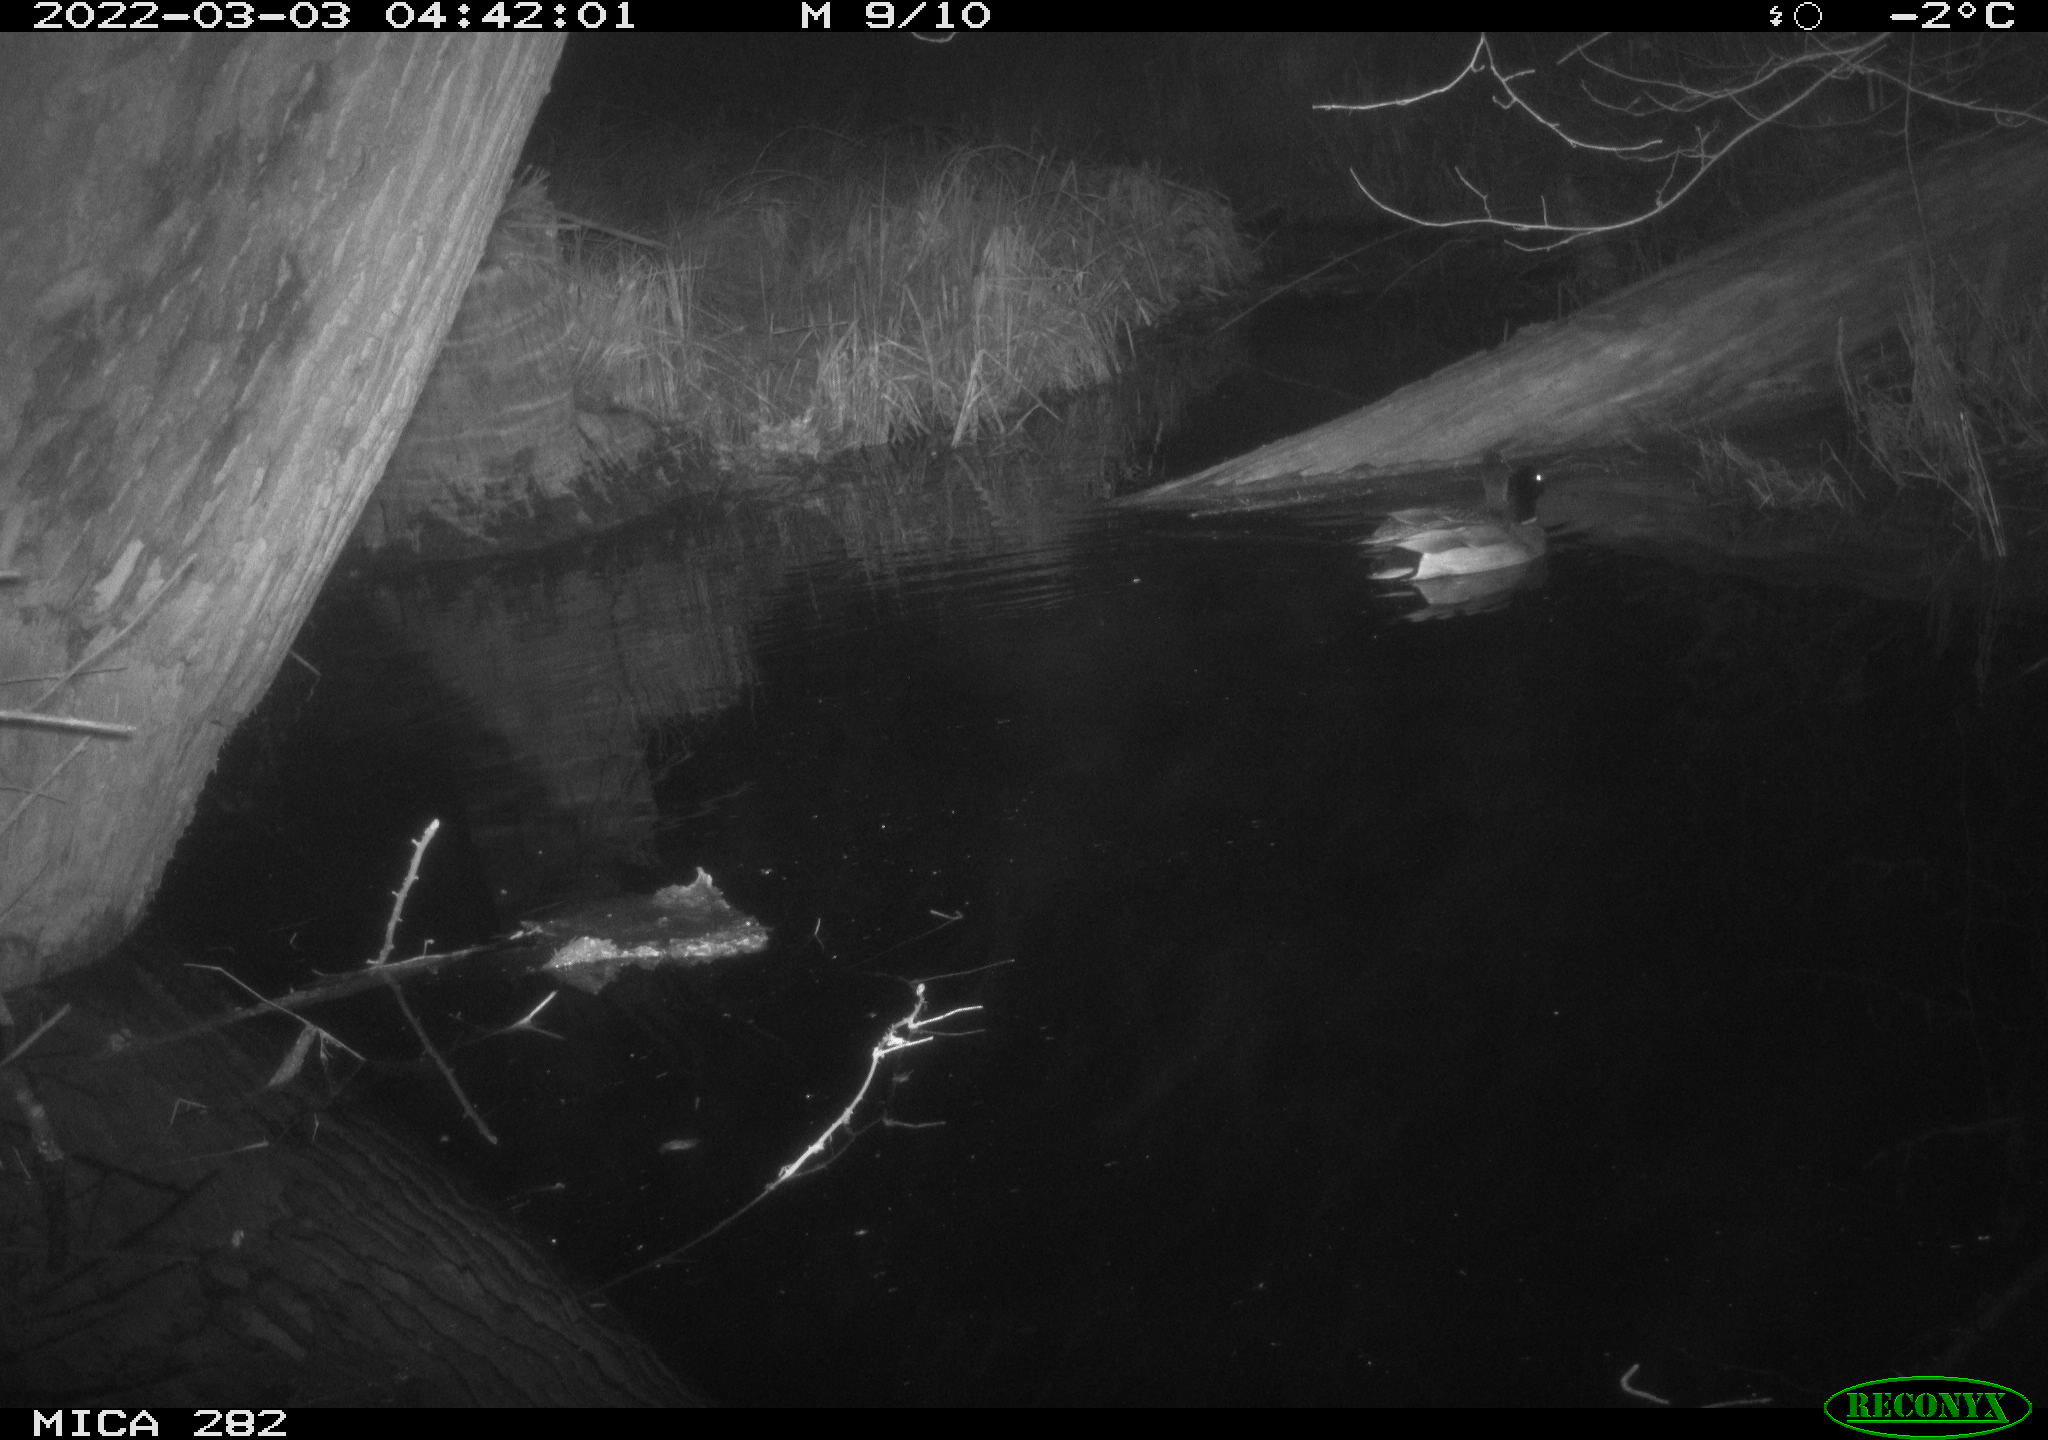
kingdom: Animalia
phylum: Chordata
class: Aves
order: Anseriformes
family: Anatidae
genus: Anas
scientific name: Anas platyrhynchos
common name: Mallard
